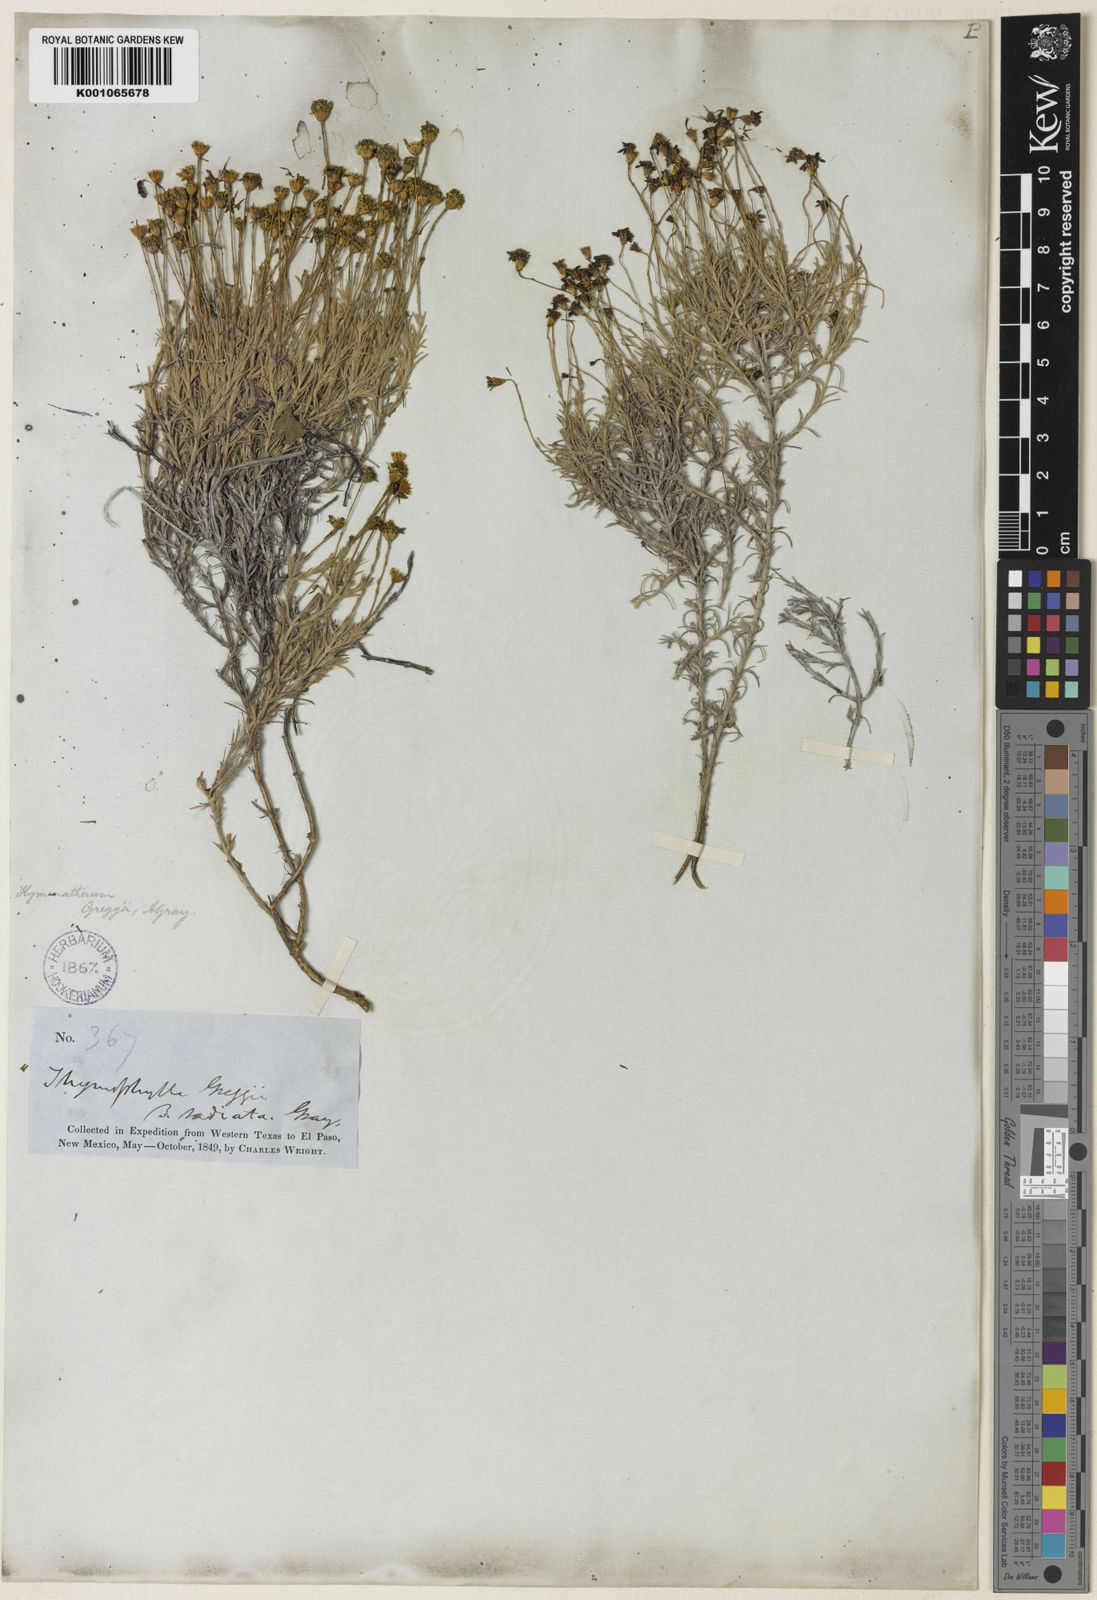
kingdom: Plantae
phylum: Tracheophyta
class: Magnoliopsida
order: Asterales
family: Asteraceae
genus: Thymophylla
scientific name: Thymophylla setifolia
